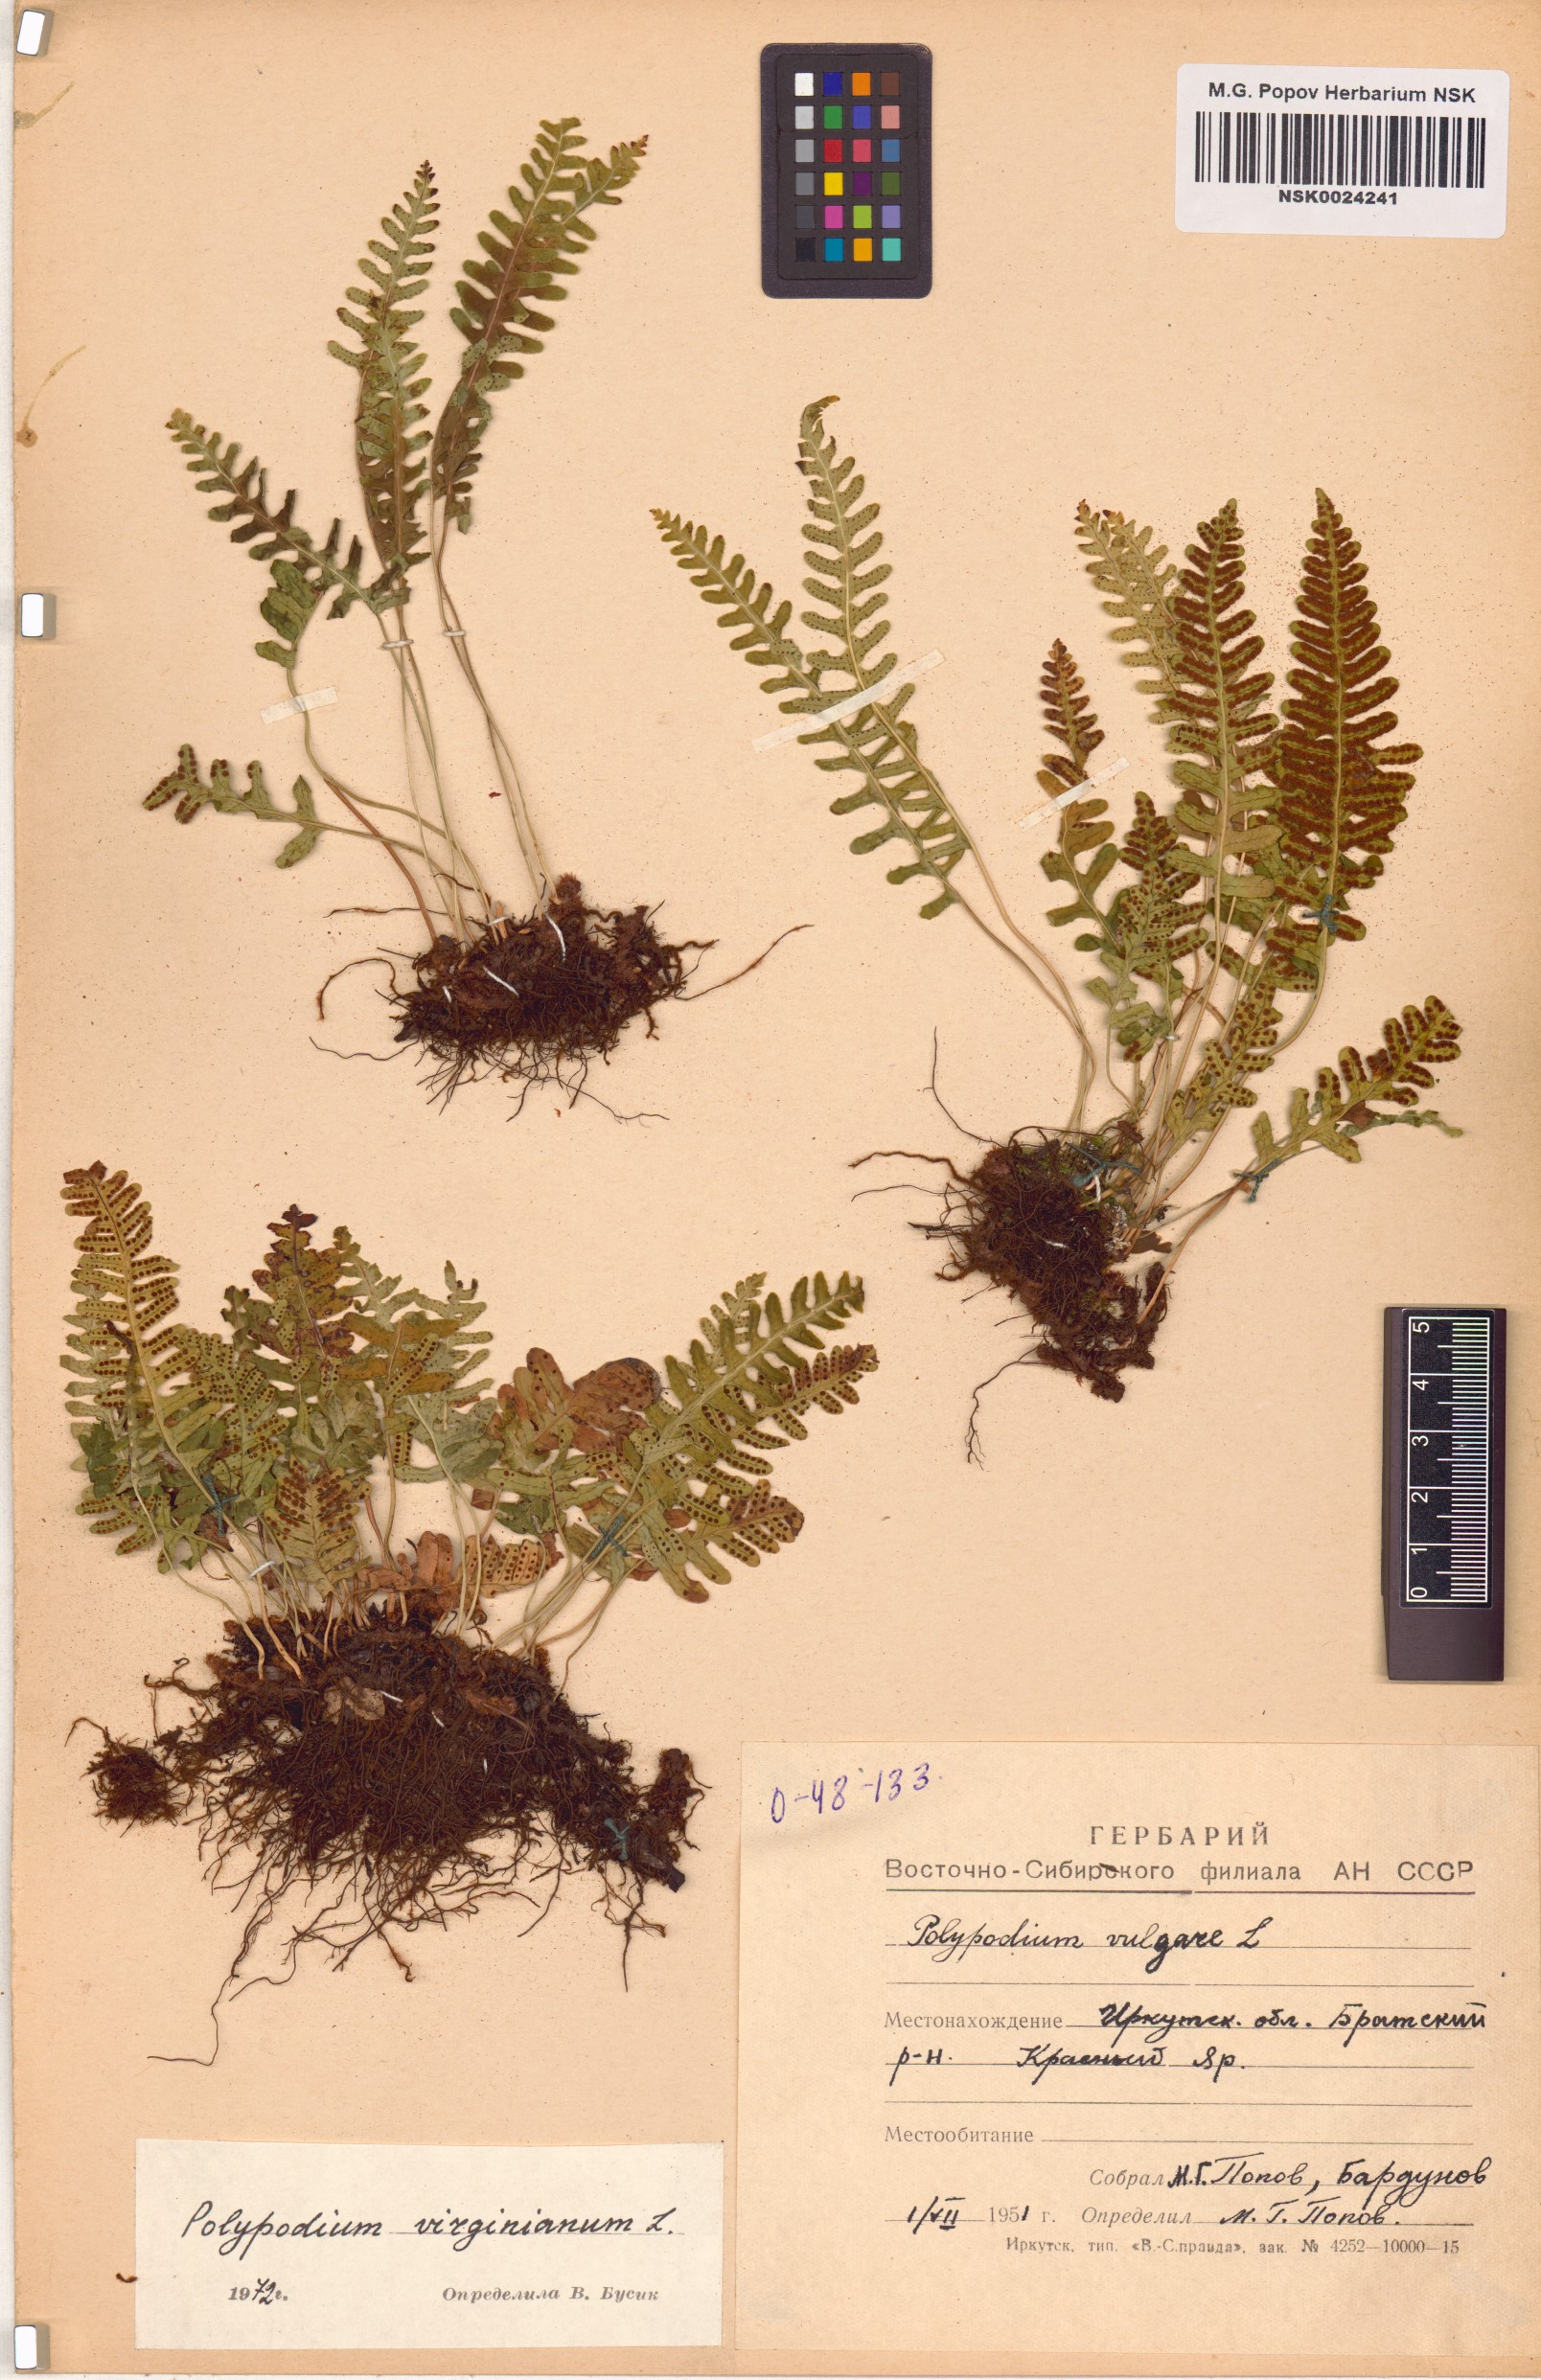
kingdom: Plantae
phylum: Tracheophyta
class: Polypodiopsida
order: Polypodiales
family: Polypodiaceae
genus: Polypodium
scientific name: Polypodium virginianum
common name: American wall fern
